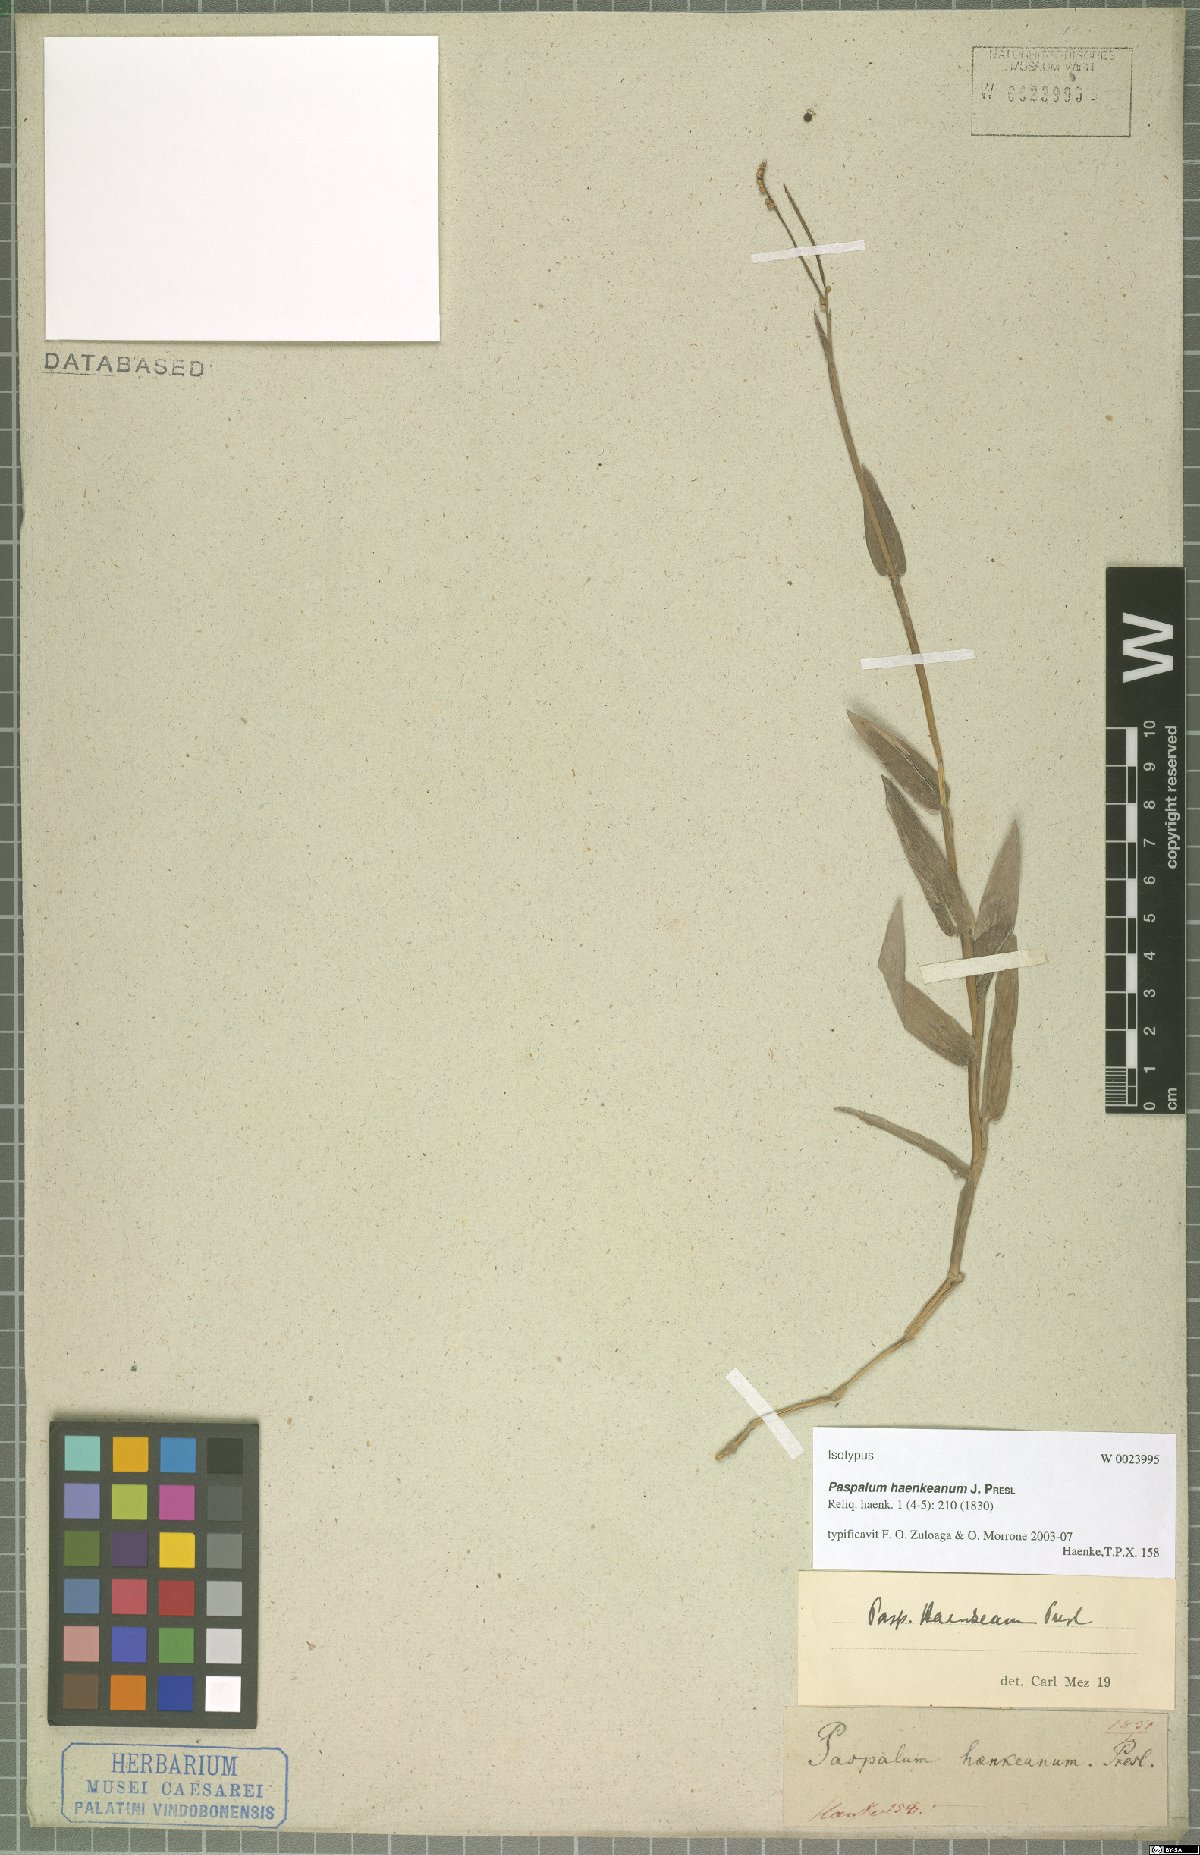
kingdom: Plantae
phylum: Tracheophyta
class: Liliopsida
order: Poales
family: Poaceae
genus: Paspalum
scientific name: Paspalum haenkeanum
